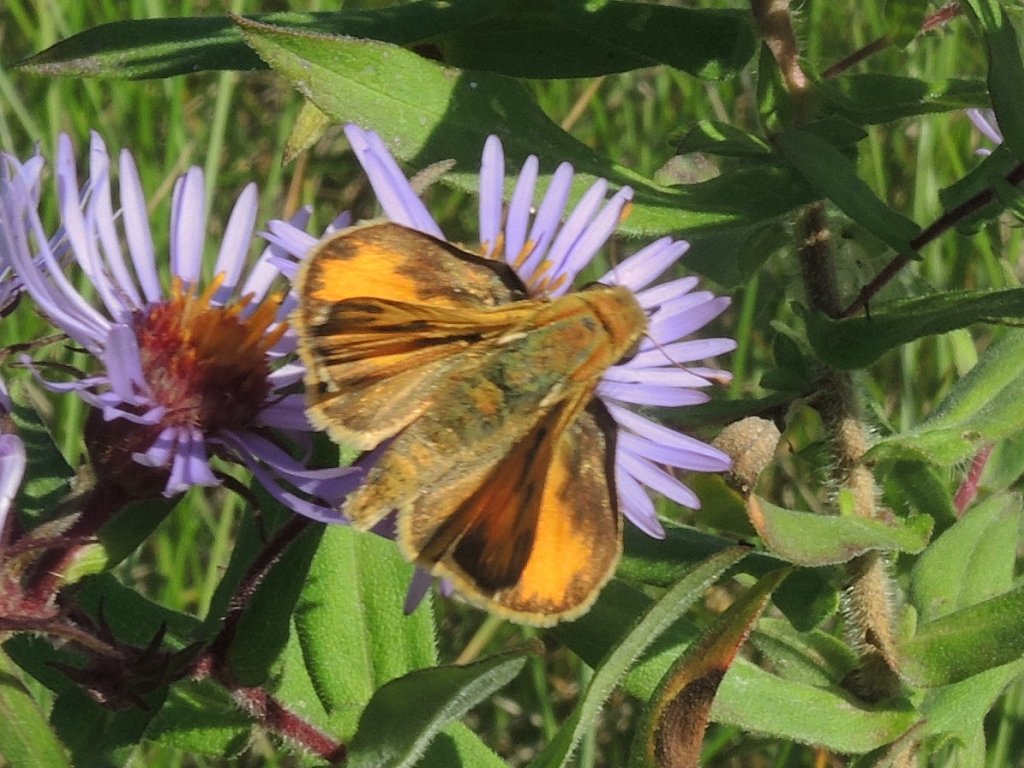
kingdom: Animalia
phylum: Arthropoda
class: Insecta
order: Lepidoptera
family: Hesperiidae
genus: Hylephila
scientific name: Hylephila phyleus
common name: Fiery Skipper
